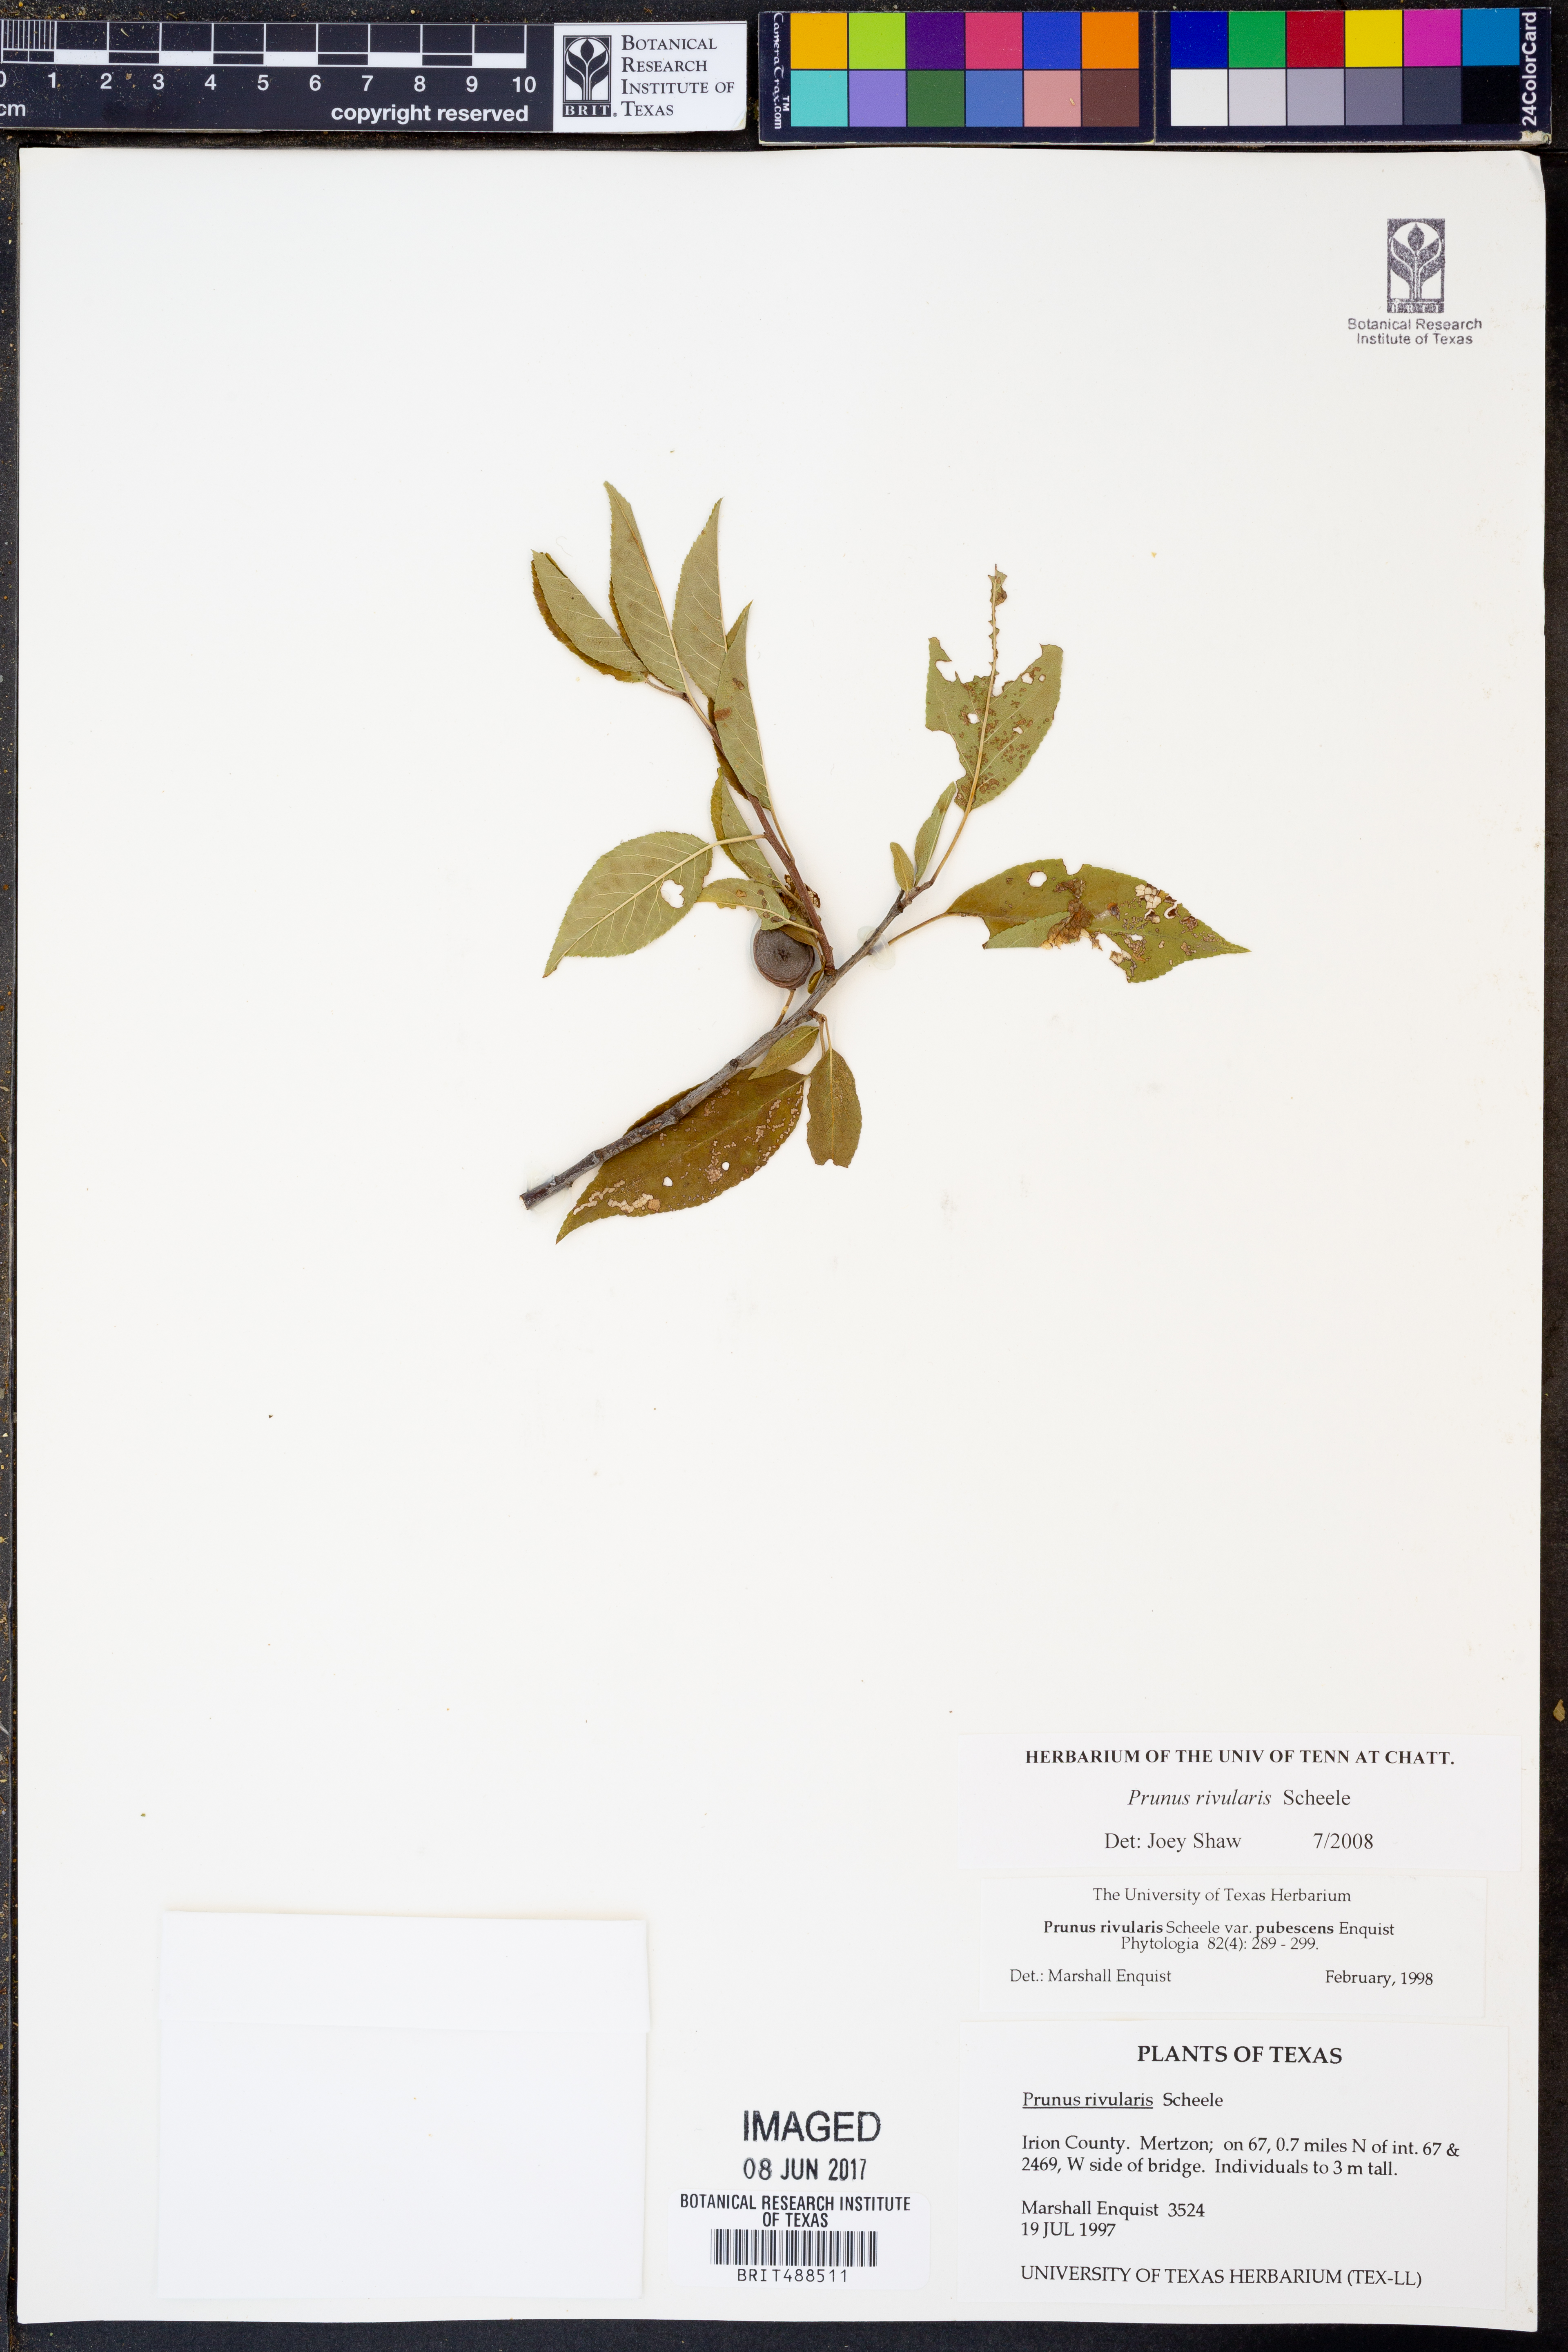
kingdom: Plantae
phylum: Tracheophyta
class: Magnoliopsida
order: Rosales
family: Rosaceae
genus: Prunus
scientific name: Prunus rivularis
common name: Creek plum
